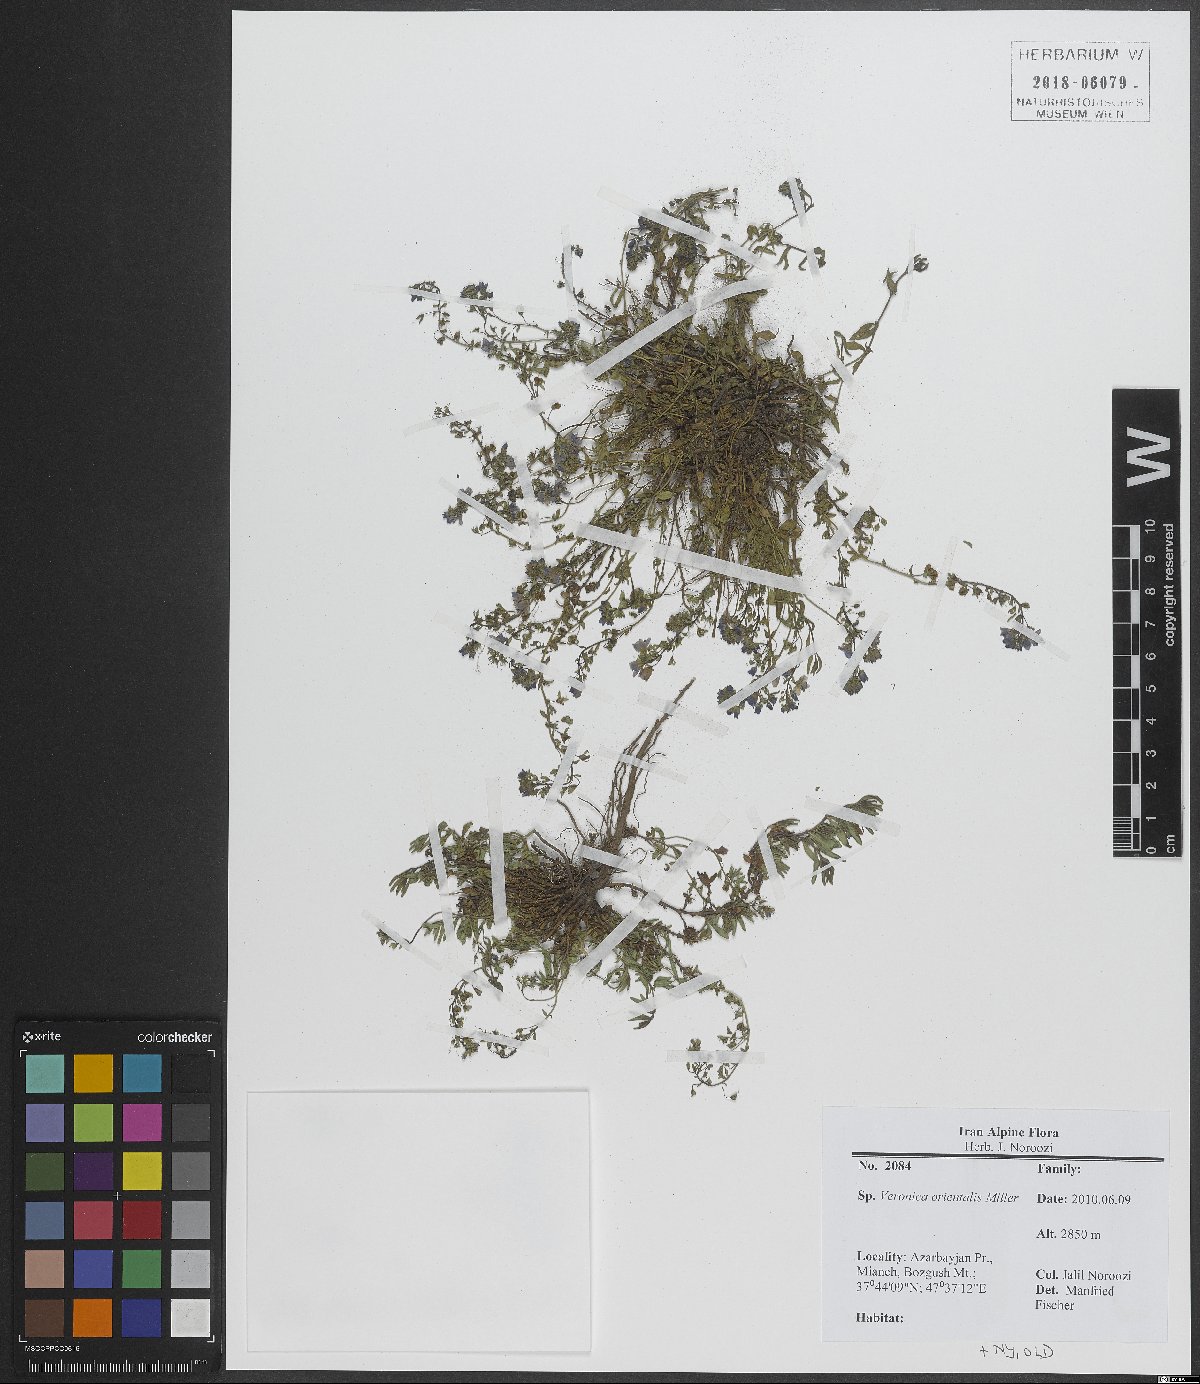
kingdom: Plantae
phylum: Tracheophyta
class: Magnoliopsida
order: Lamiales
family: Plantaginaceae
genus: Veronica
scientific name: Veronica orientalis
